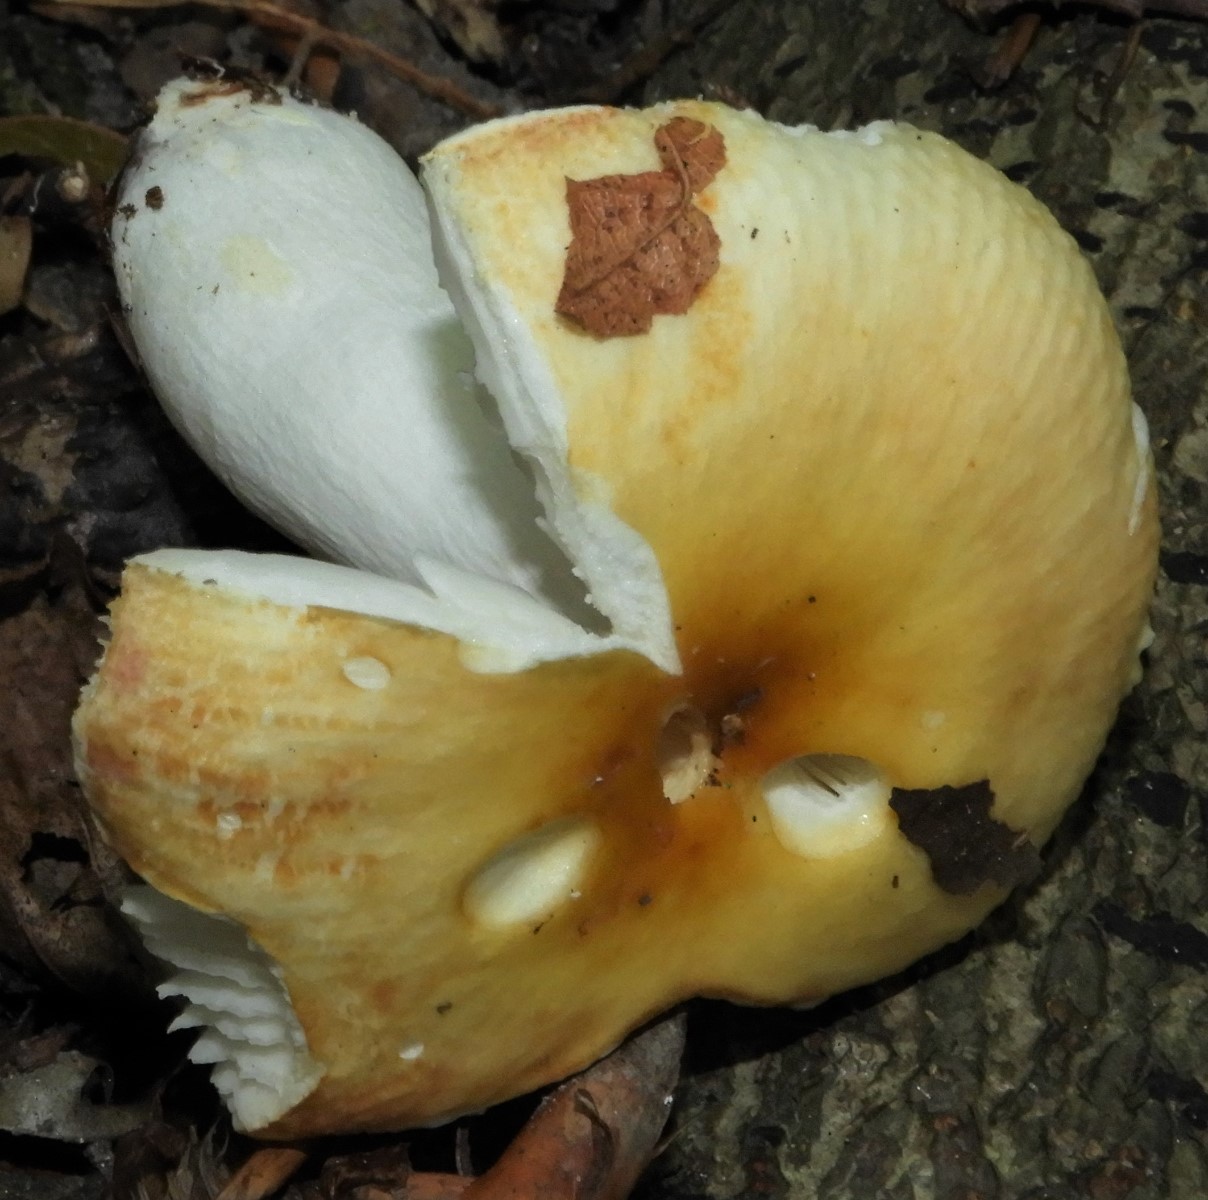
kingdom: Fungi
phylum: Basidiomycota
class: Agaricomycetes
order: Russulales
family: Russulaceae
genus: Russula
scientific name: Russula
